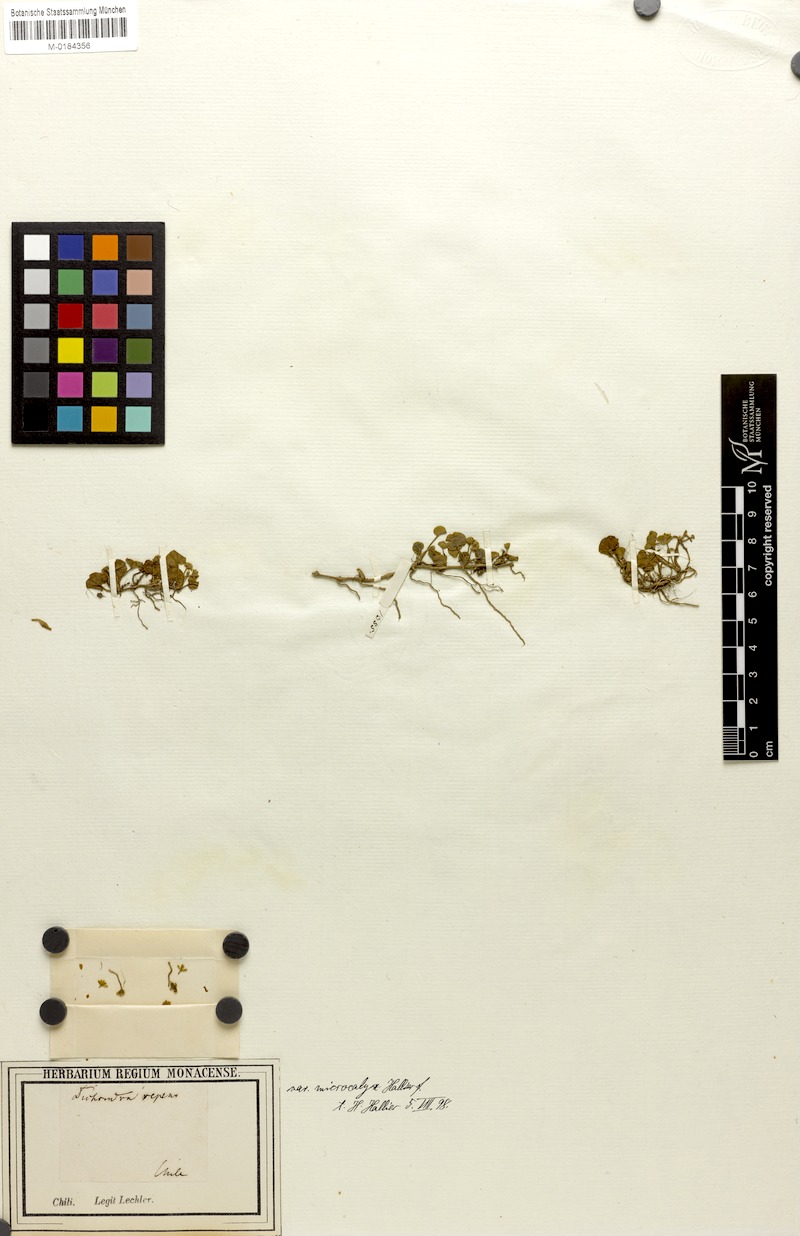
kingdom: Plantae
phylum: Tracheophyta
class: Magnoliopsida
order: Solanales
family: Convolvulaceae
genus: Dichondra
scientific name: Dichondra microcalyx
